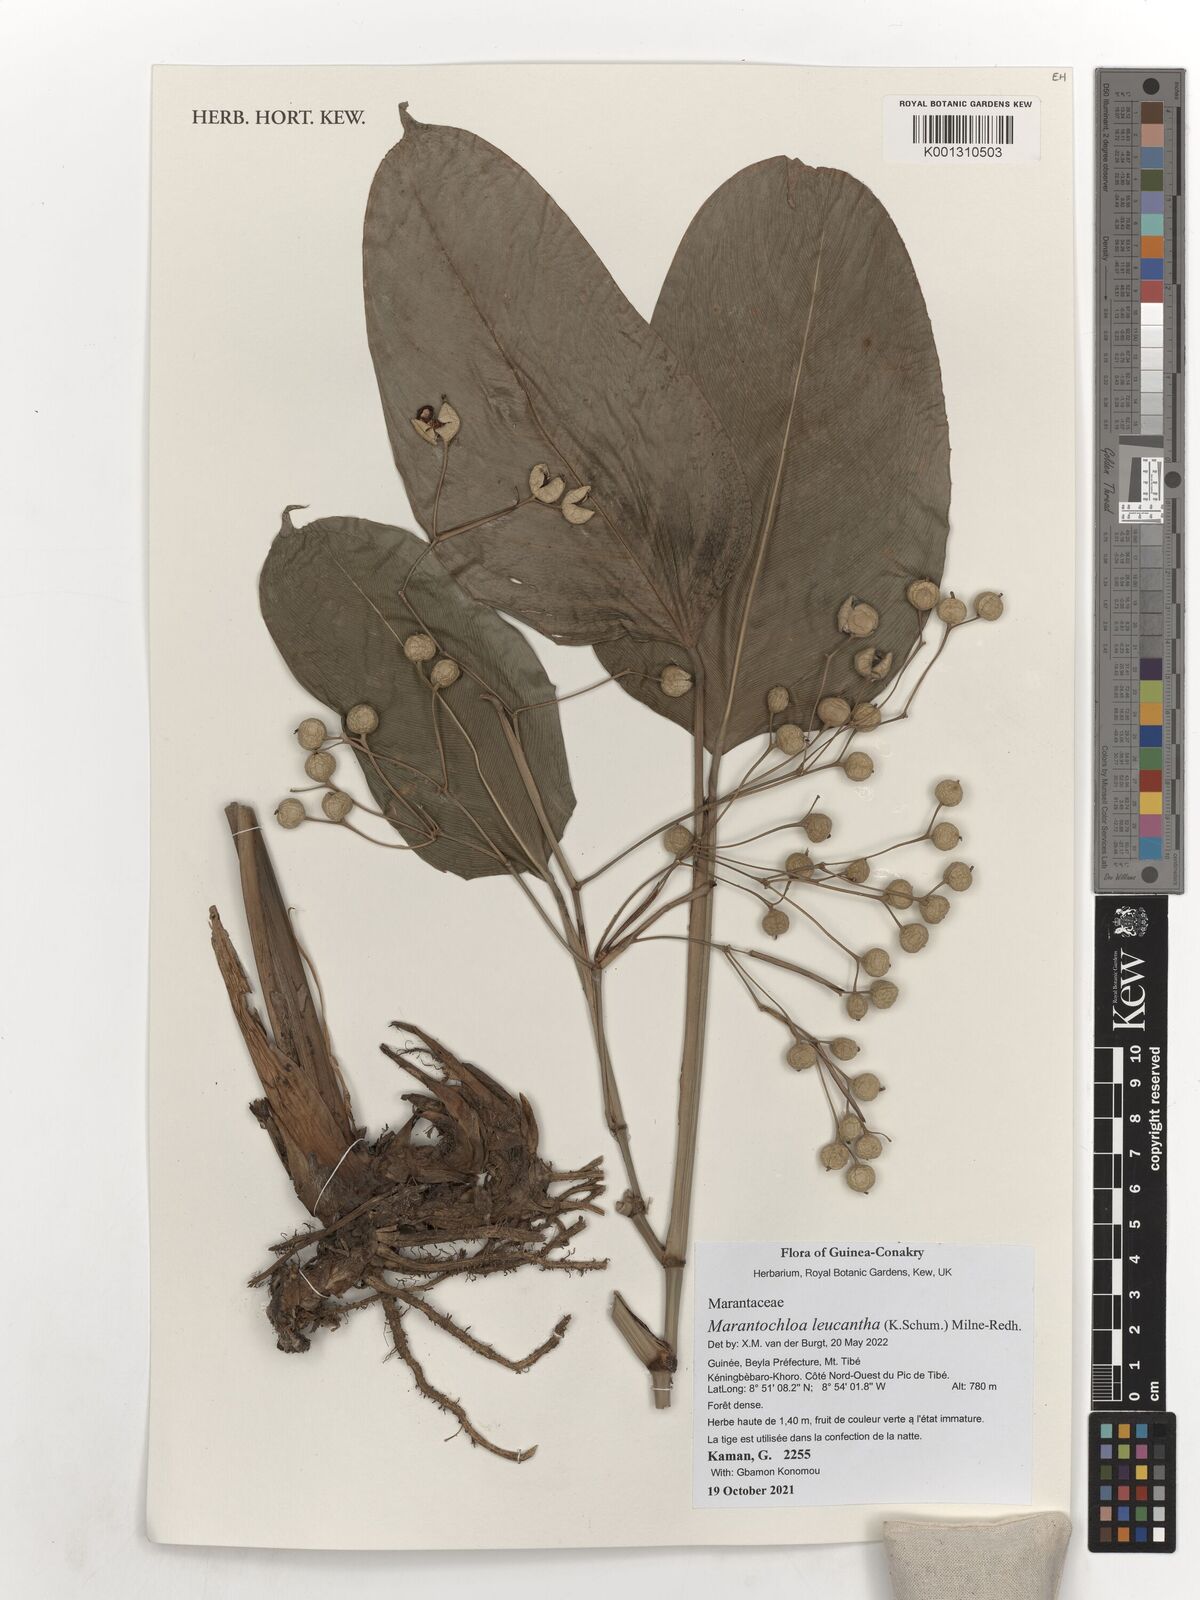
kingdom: Plantae
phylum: Tracheophyta
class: Liliopsida
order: Zingiberales
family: Marantaceae
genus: Marantochloa
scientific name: Marantochloa leucantha
